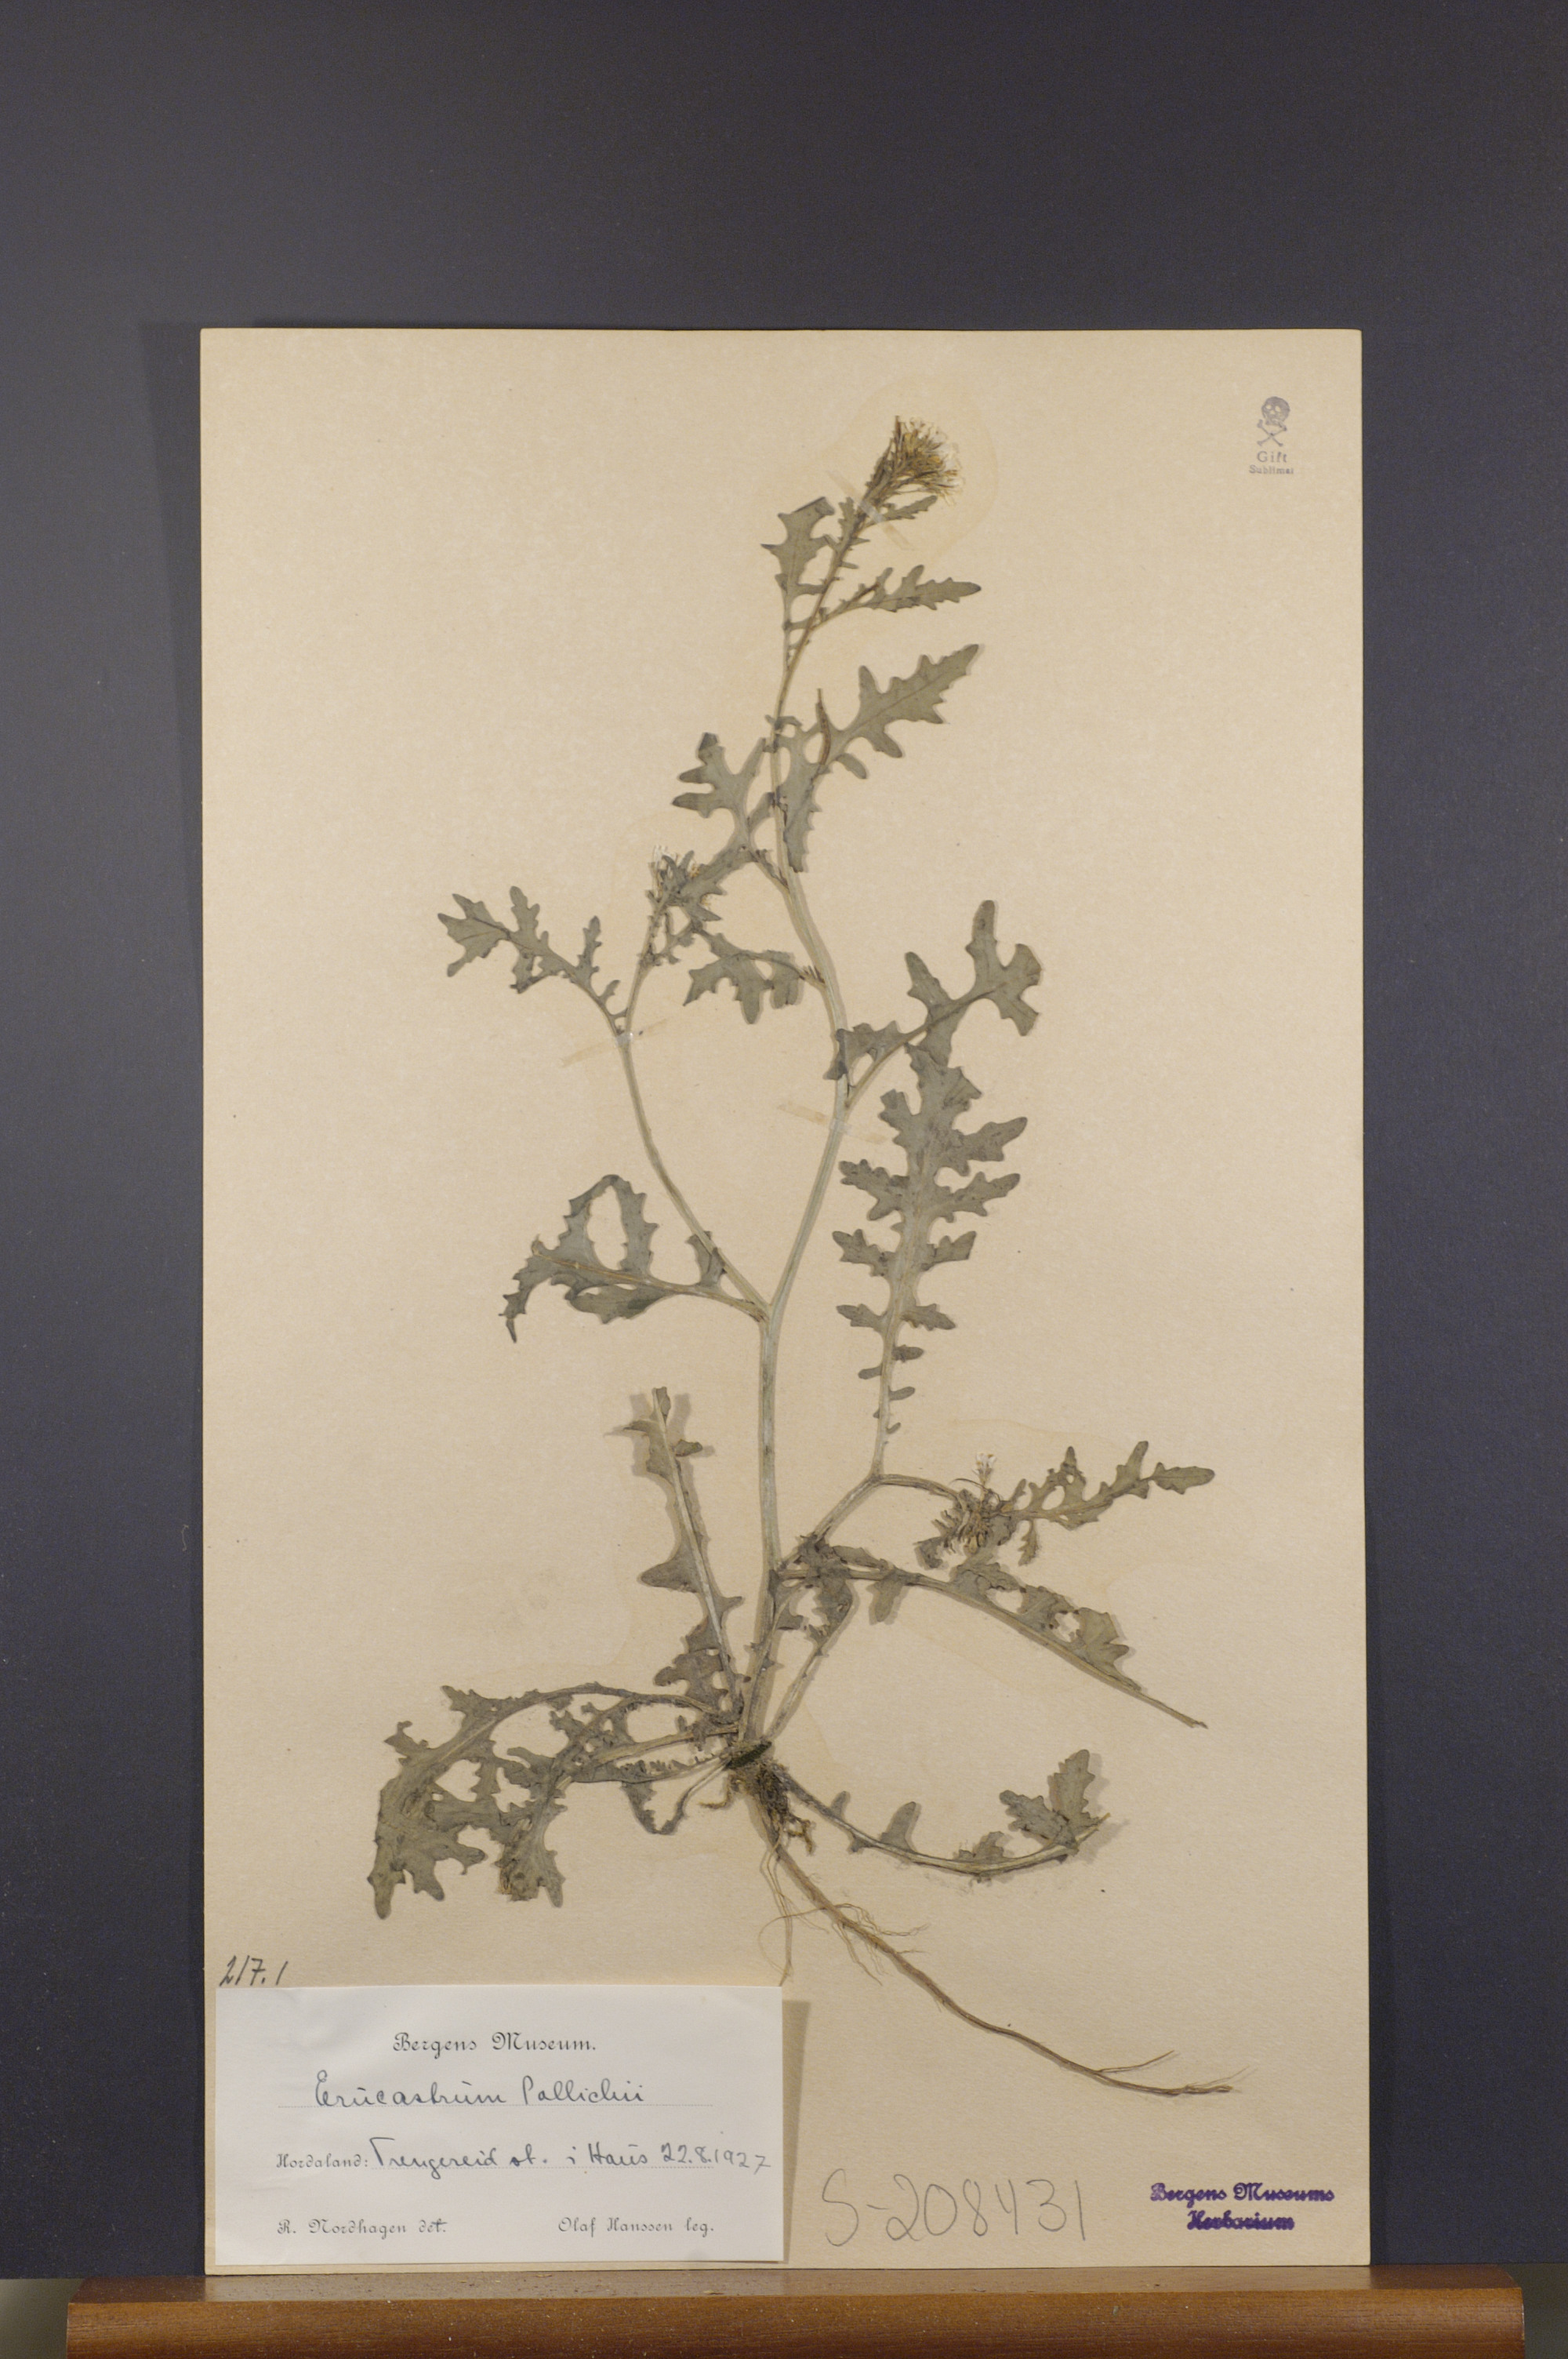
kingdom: Plantae
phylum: Tracheophyta
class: Magnoliopsida
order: Brassicales
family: Brassicaceae
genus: Erucastrum
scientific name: Erucastrum gallicum
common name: Hairy rocket
